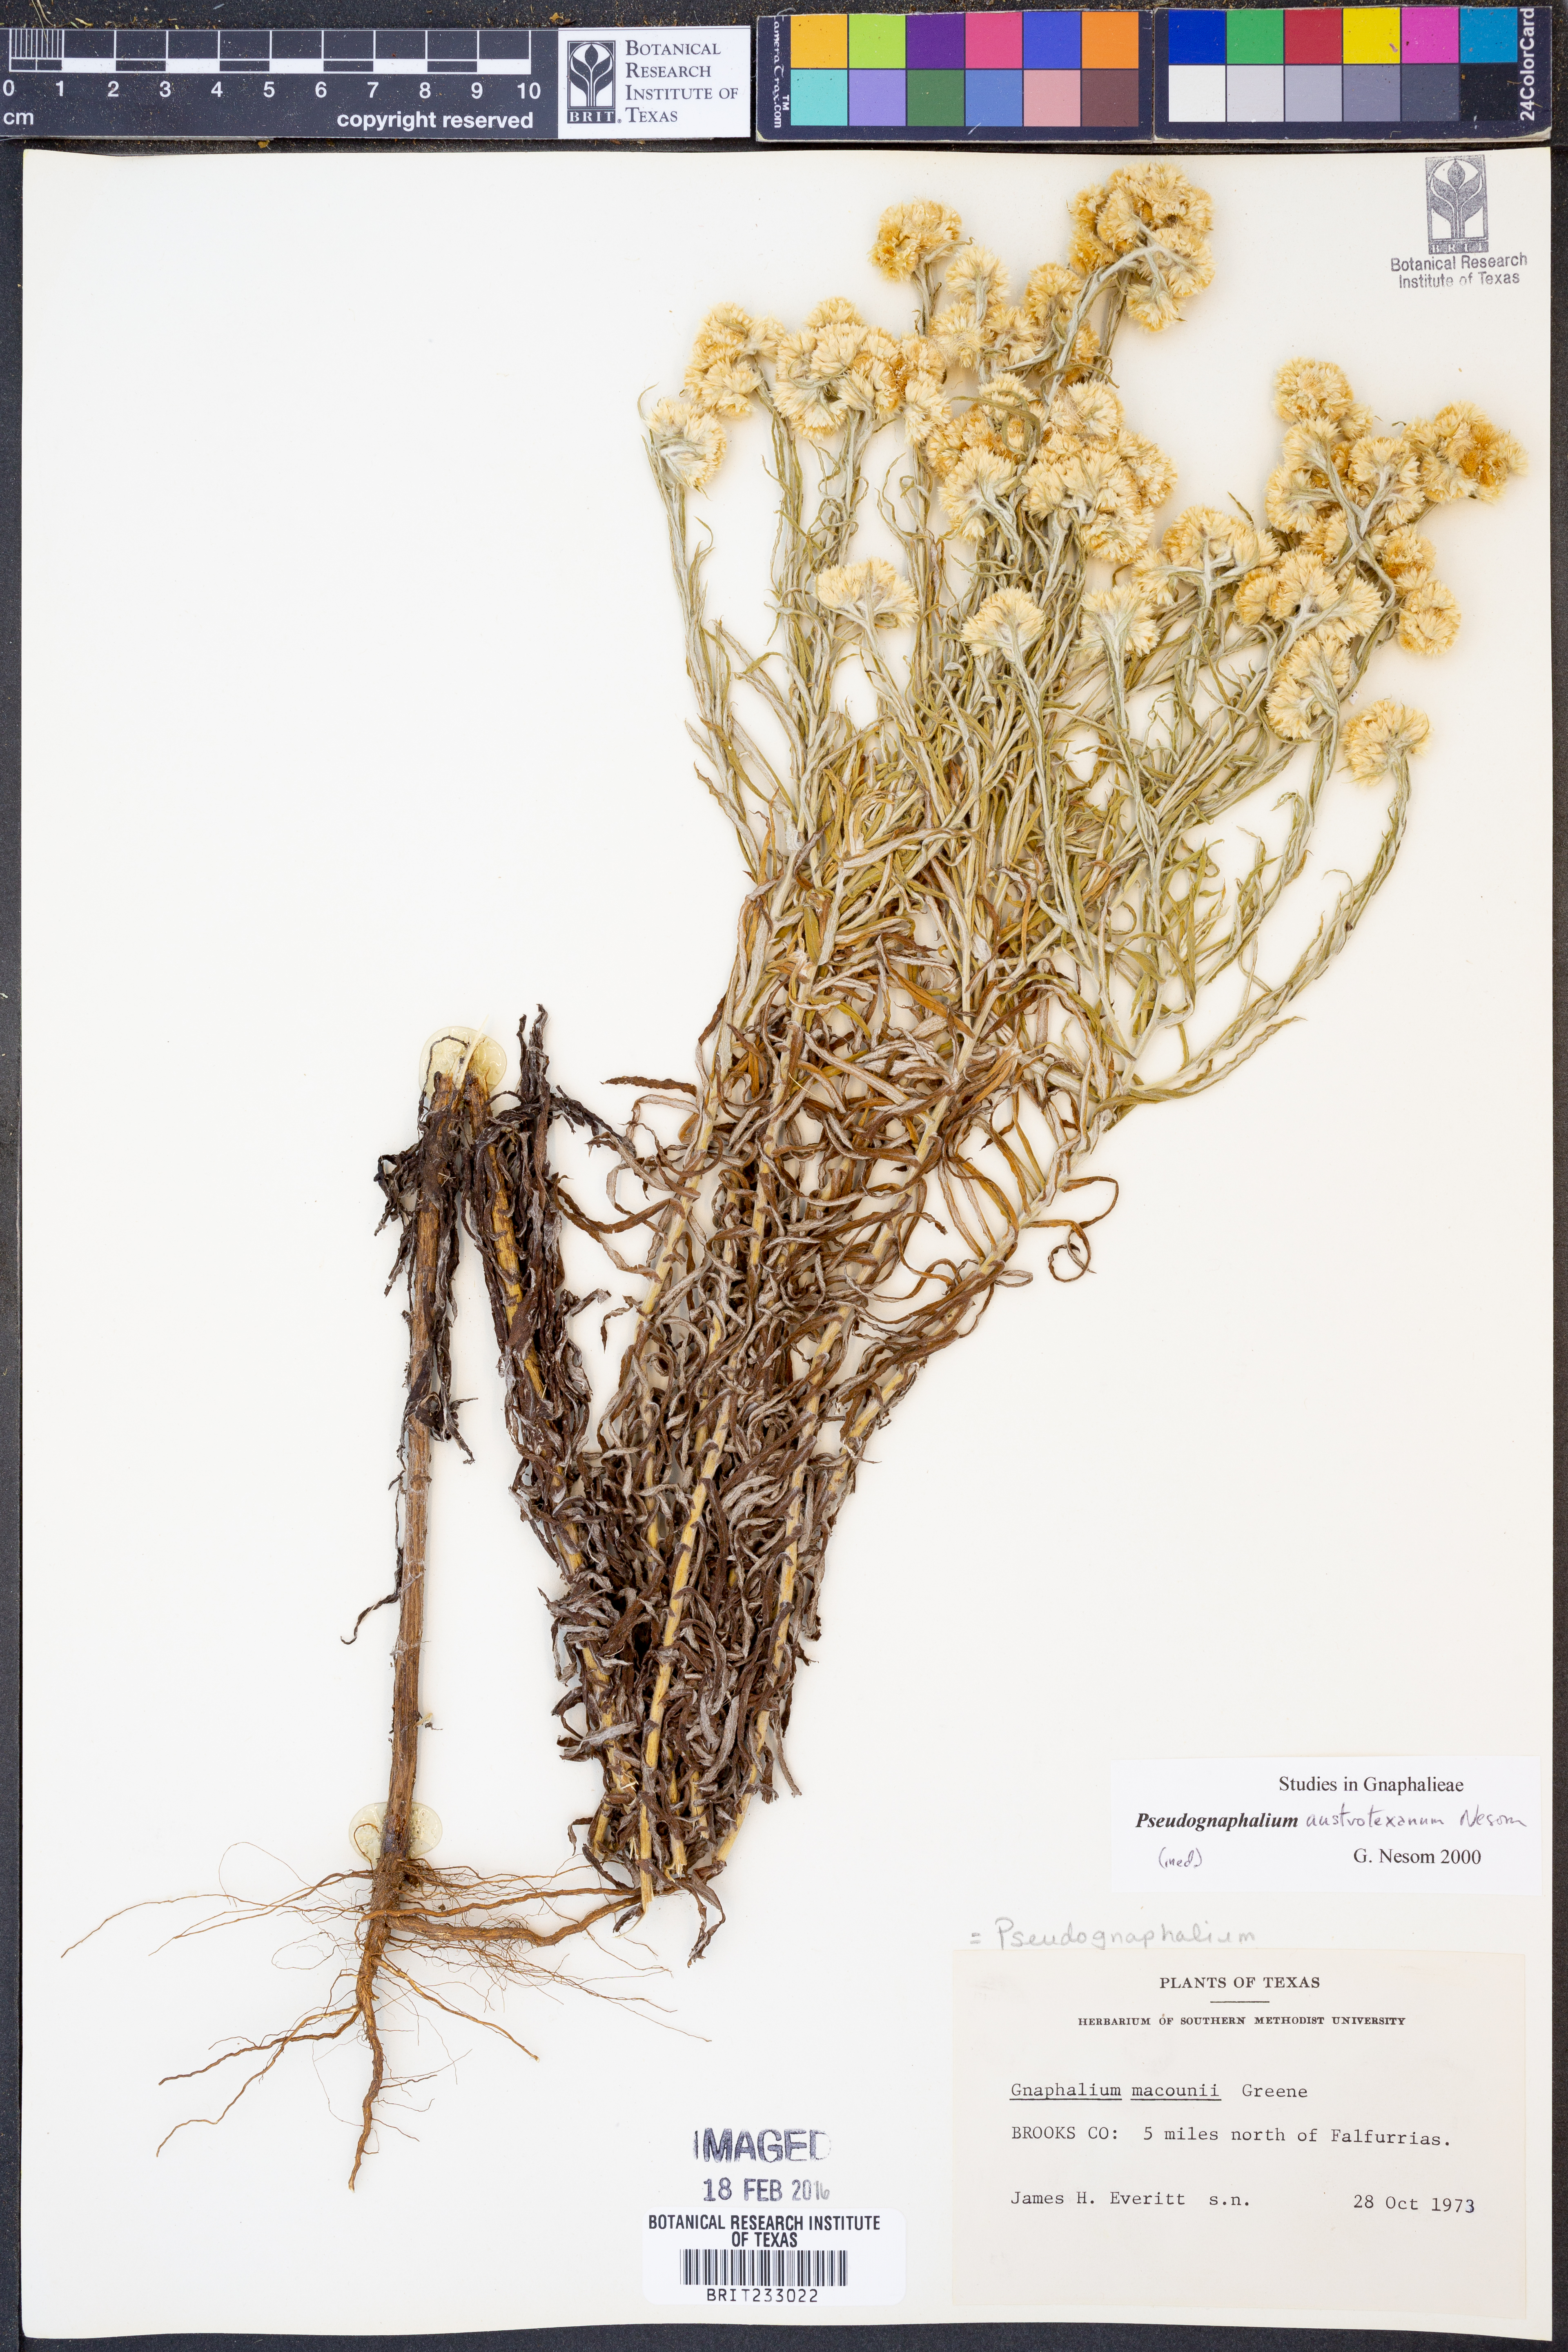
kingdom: Plantae
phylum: Tracheophyta
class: Magnoliopsida
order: Asterales
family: Asteraceae
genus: Pseudognaphalium
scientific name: Pseudognaphalium austrotexanum
